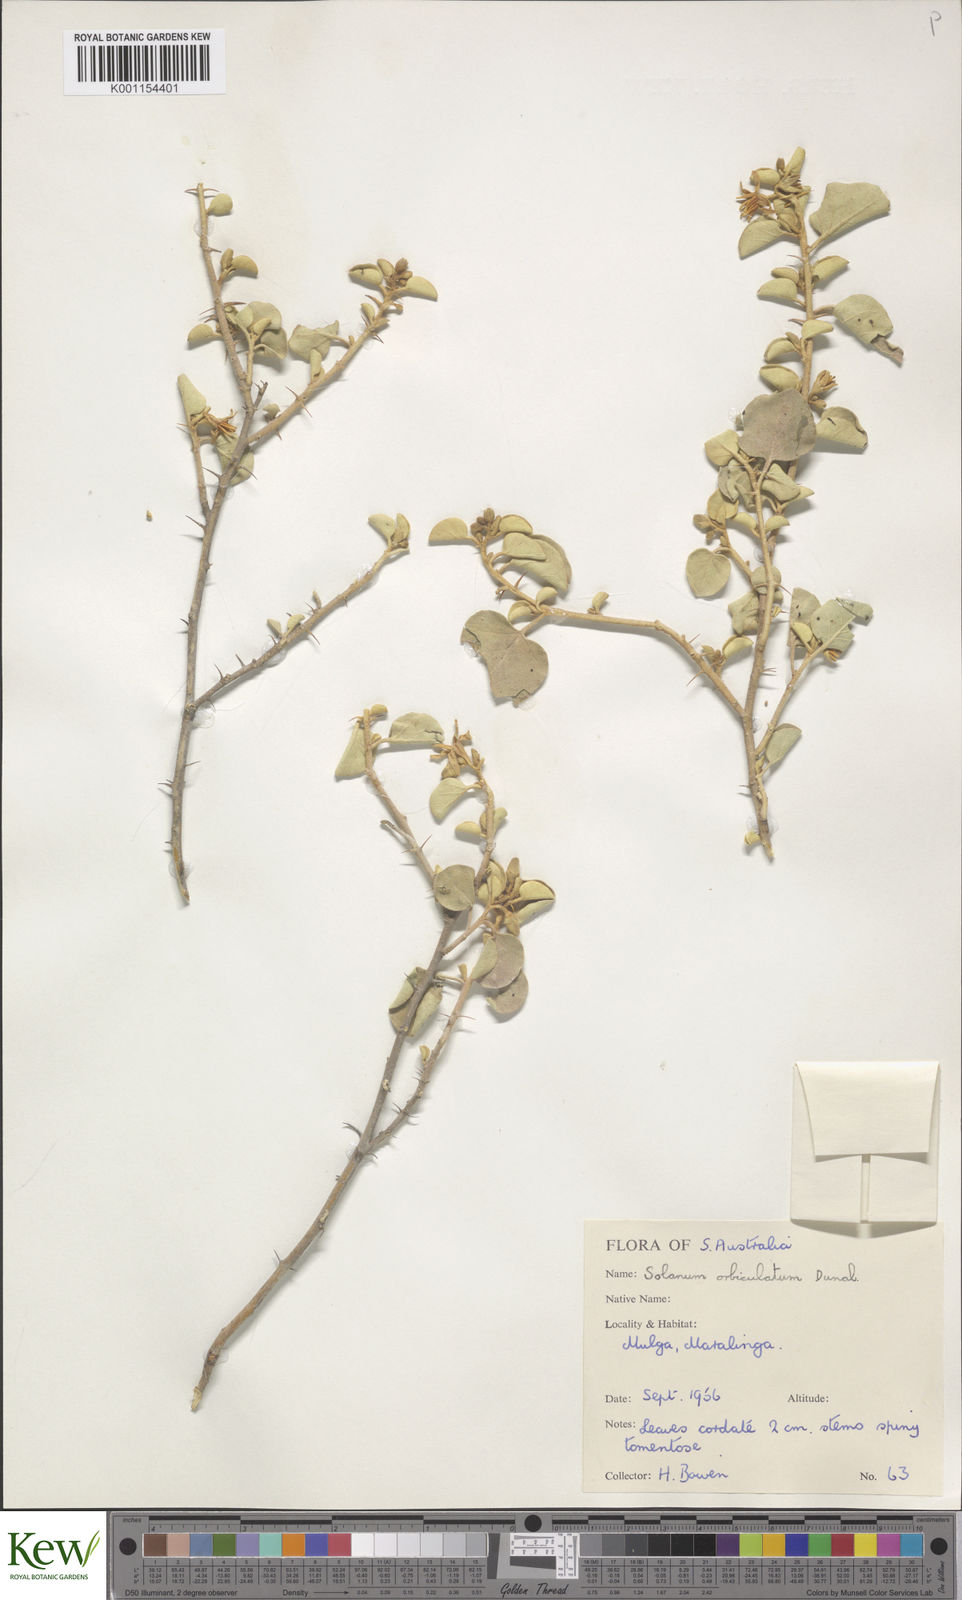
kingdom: Plantae
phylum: Tracheophyta
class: Magnoliopsida
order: Solanales
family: Solanaceae
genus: Solanum
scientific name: Solanum orbiculatum
